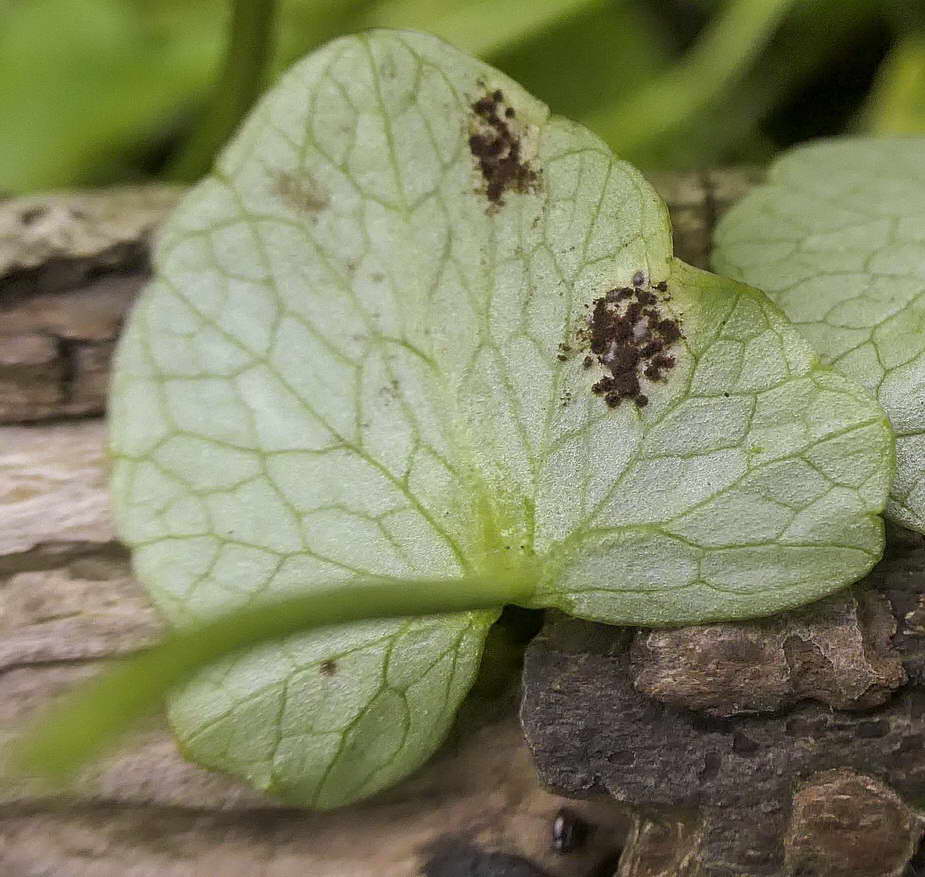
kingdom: Fungi
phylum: Basidiomycota
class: Pucciniomycetes
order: Pucciniales
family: Pucciniaceae
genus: Uromyces
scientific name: Uromyces ficariae
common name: vorterod-encellerust
